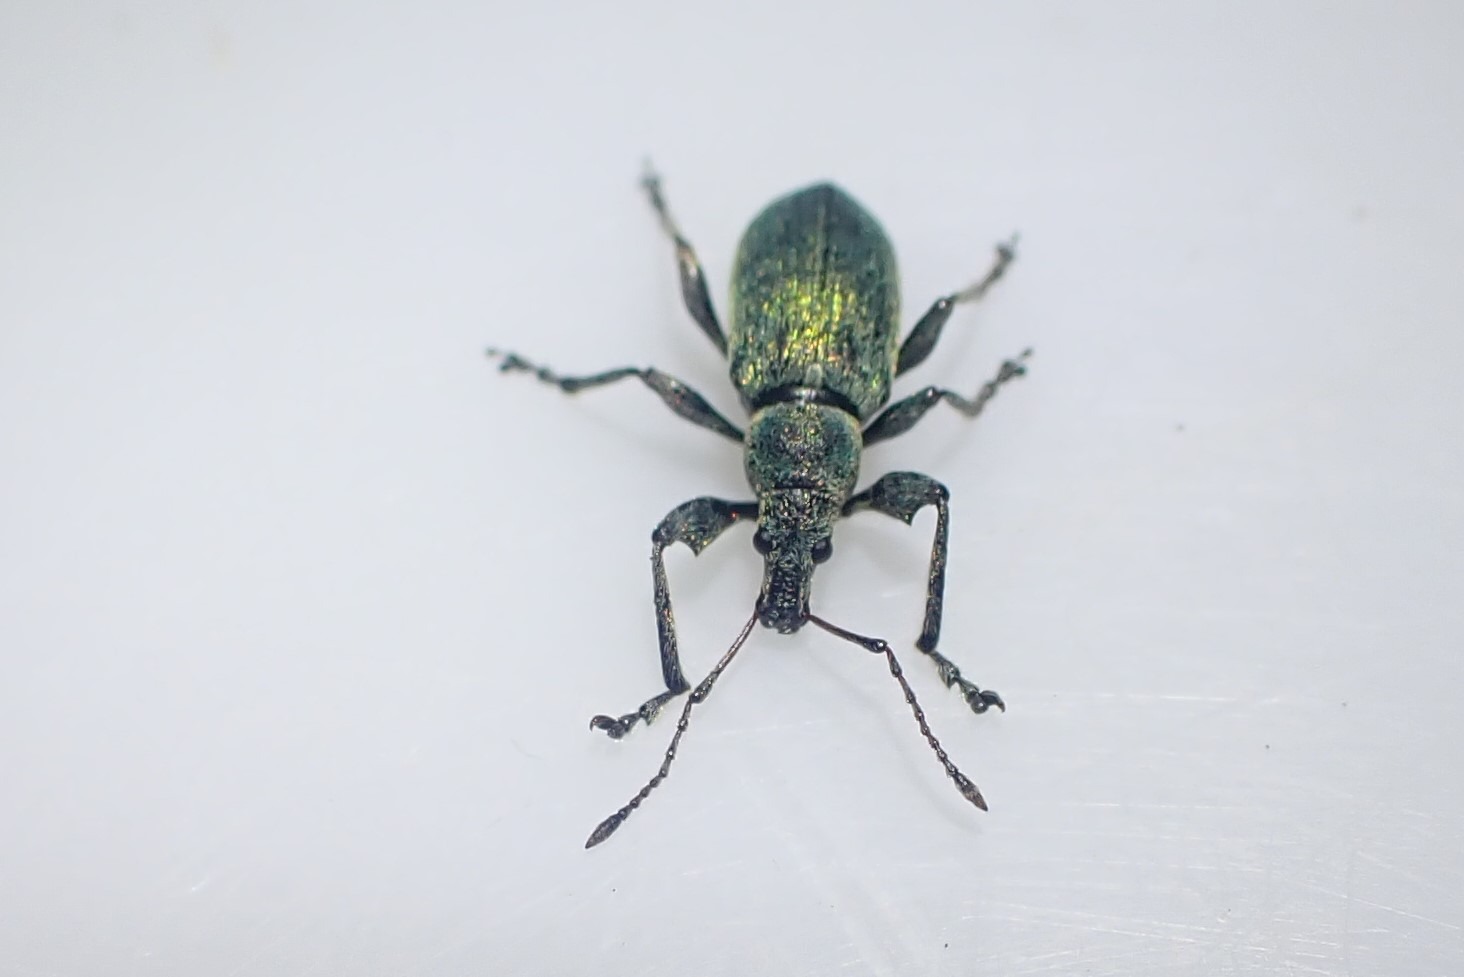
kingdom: Animalia
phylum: Arthropoda
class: Insecta
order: Coleoptera
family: Curculionidae
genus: Phyllobius
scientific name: Phyllobius pomaceus
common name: Nældesnudebille
